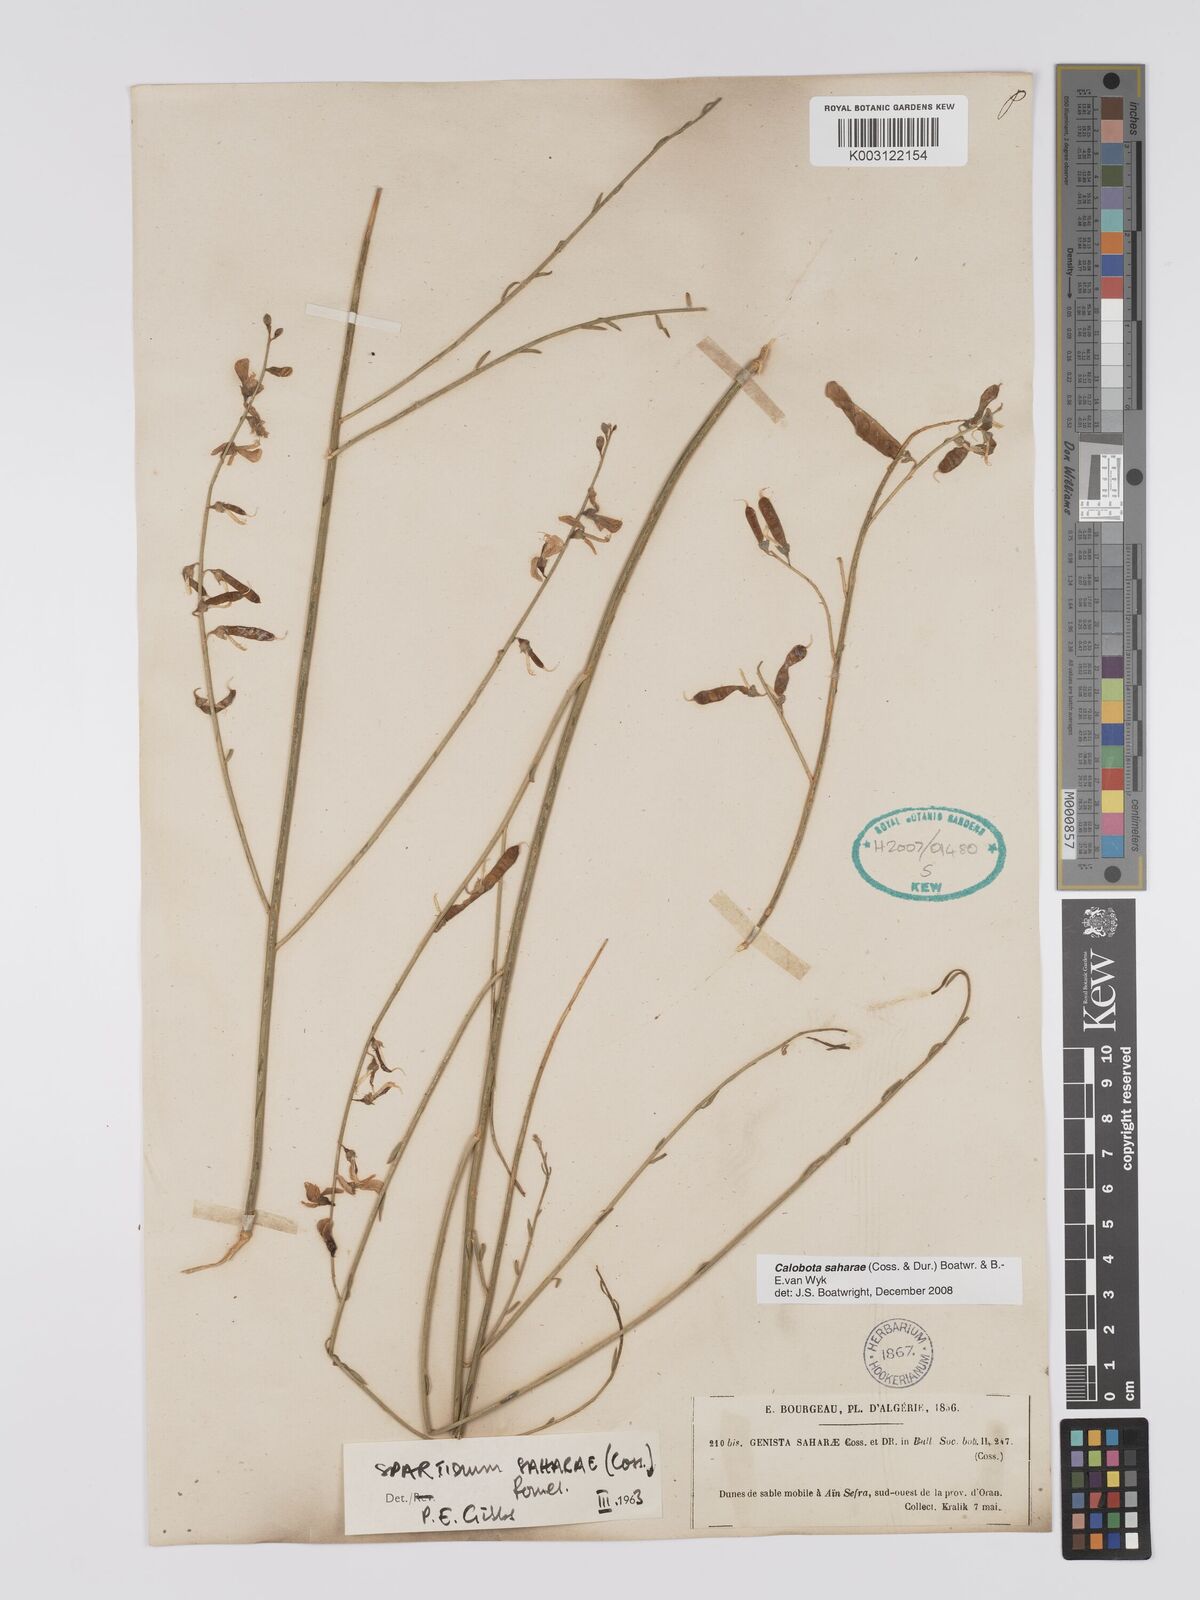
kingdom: Plantae
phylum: Tracheophyta
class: Magnoliopsida
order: Fabales
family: Fabaceae
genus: Calobota
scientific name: Calobota saharae
